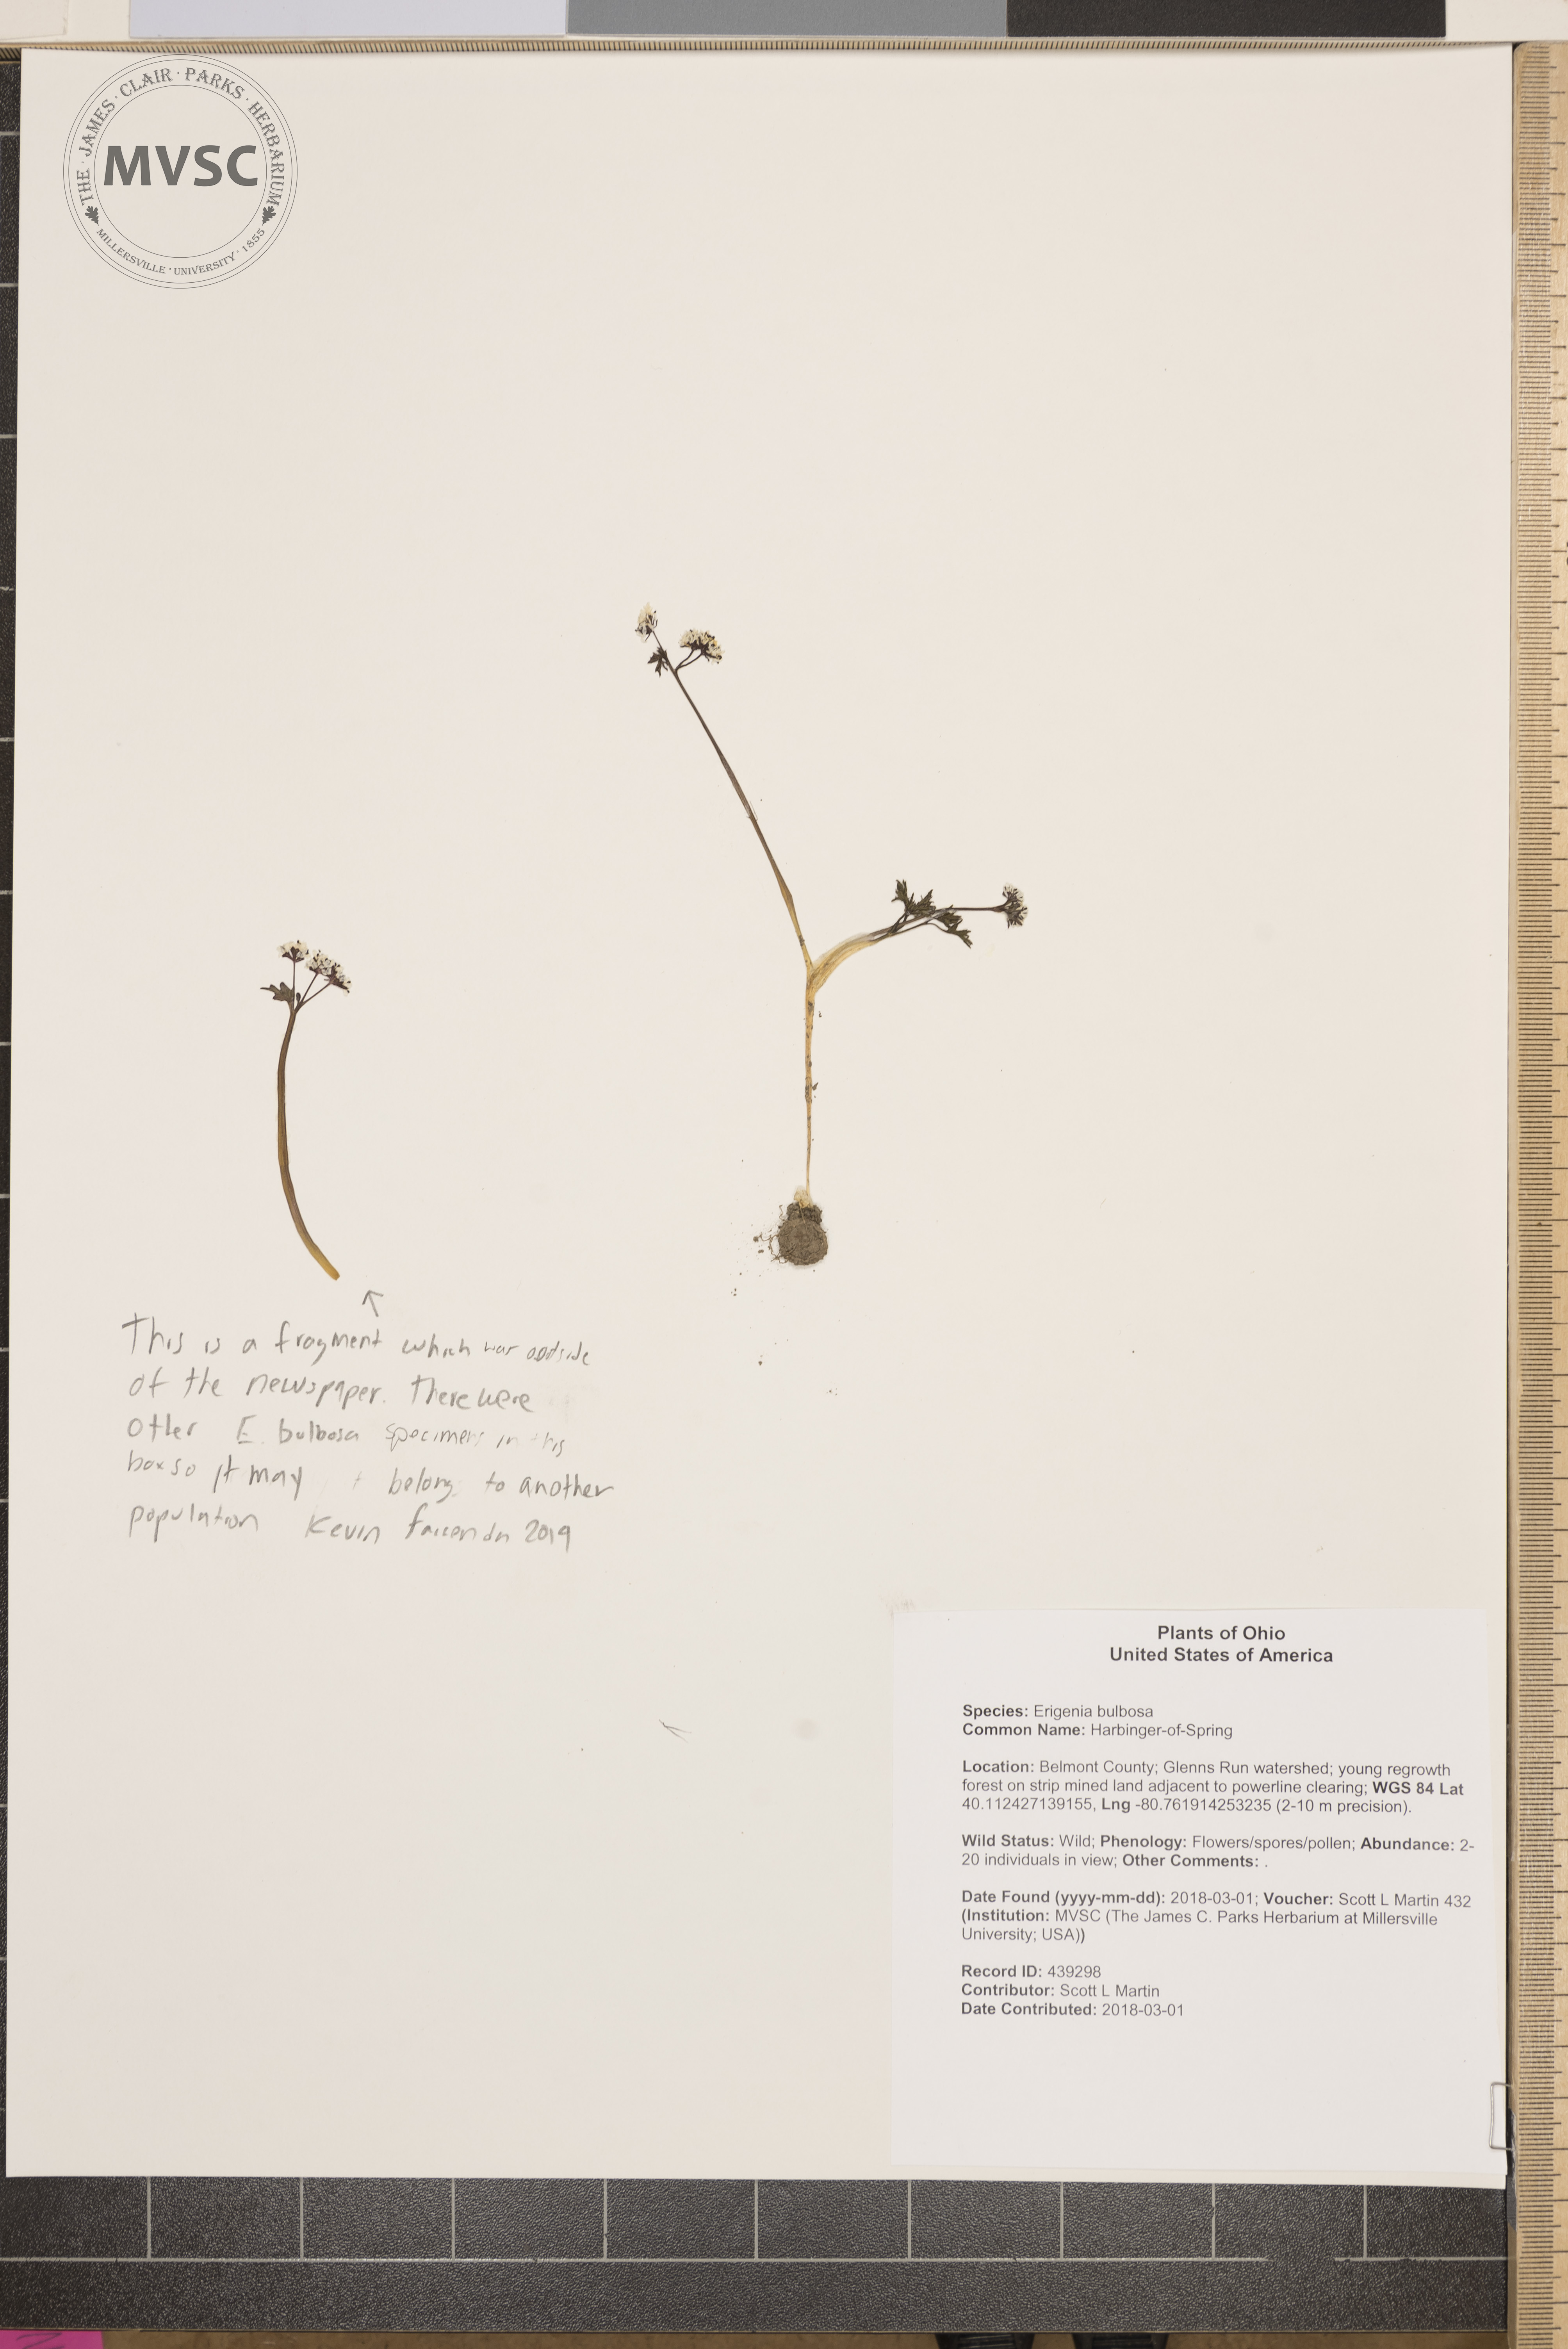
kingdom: Plantae
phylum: Tracheophyta
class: Magnoliopsida
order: Apiales
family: Apiaceae
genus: Erigenia
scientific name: Erigenia bulbosa
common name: Harbinger-of-Spring
